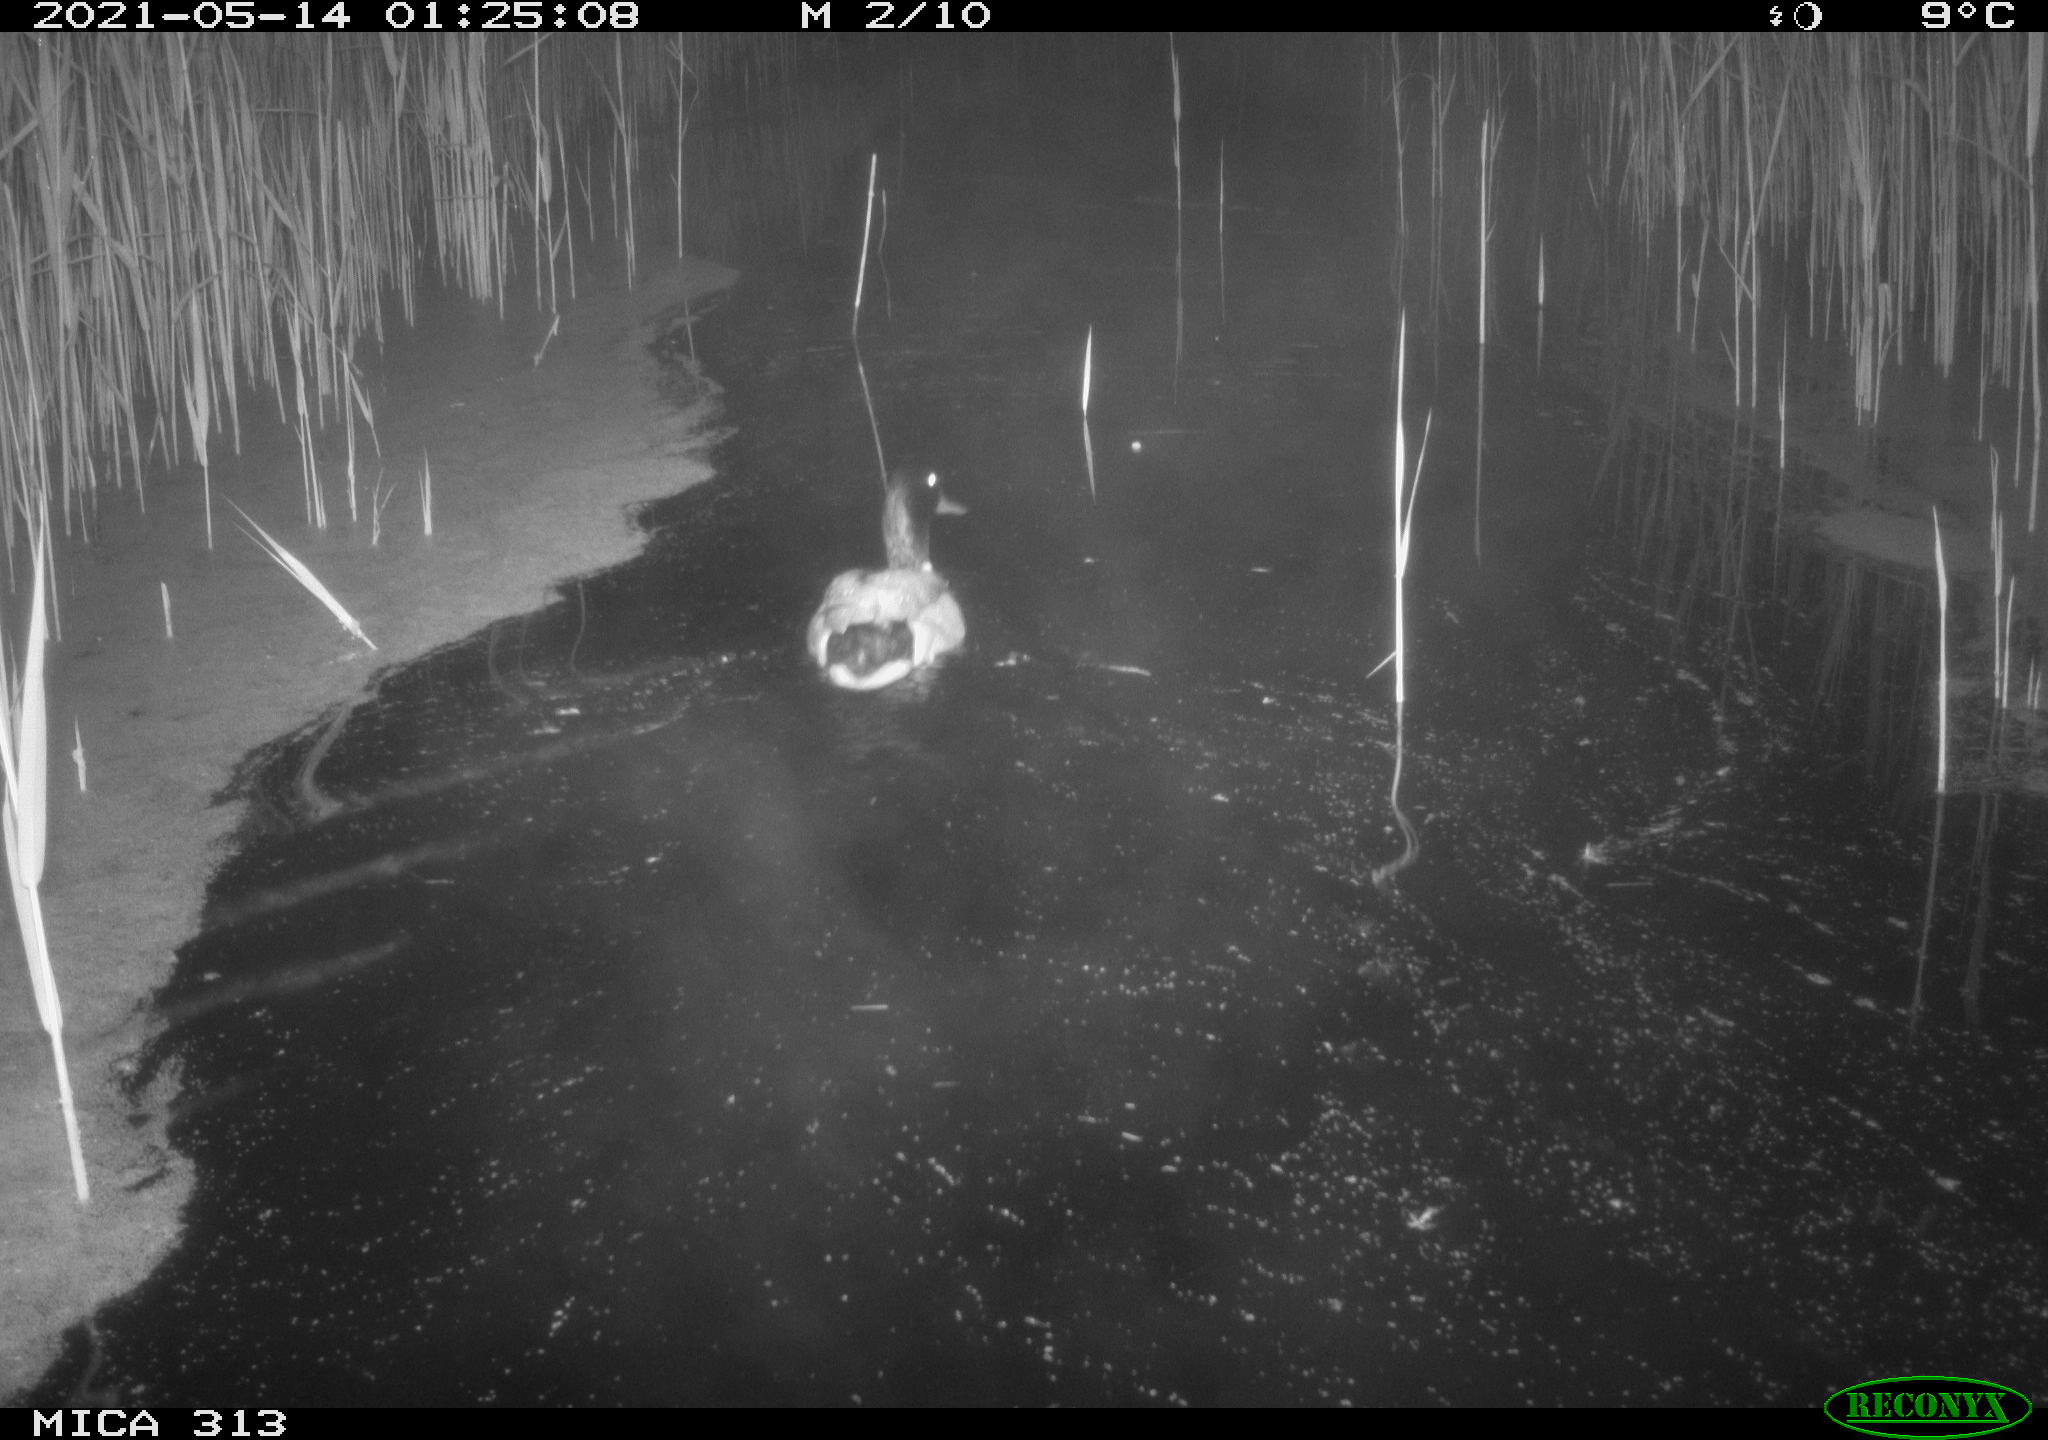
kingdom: Animalia
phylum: Chordata
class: Aves
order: Anseriformes
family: Anatidae
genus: Anas
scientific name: Anas platyrhynchos
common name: Mallard
